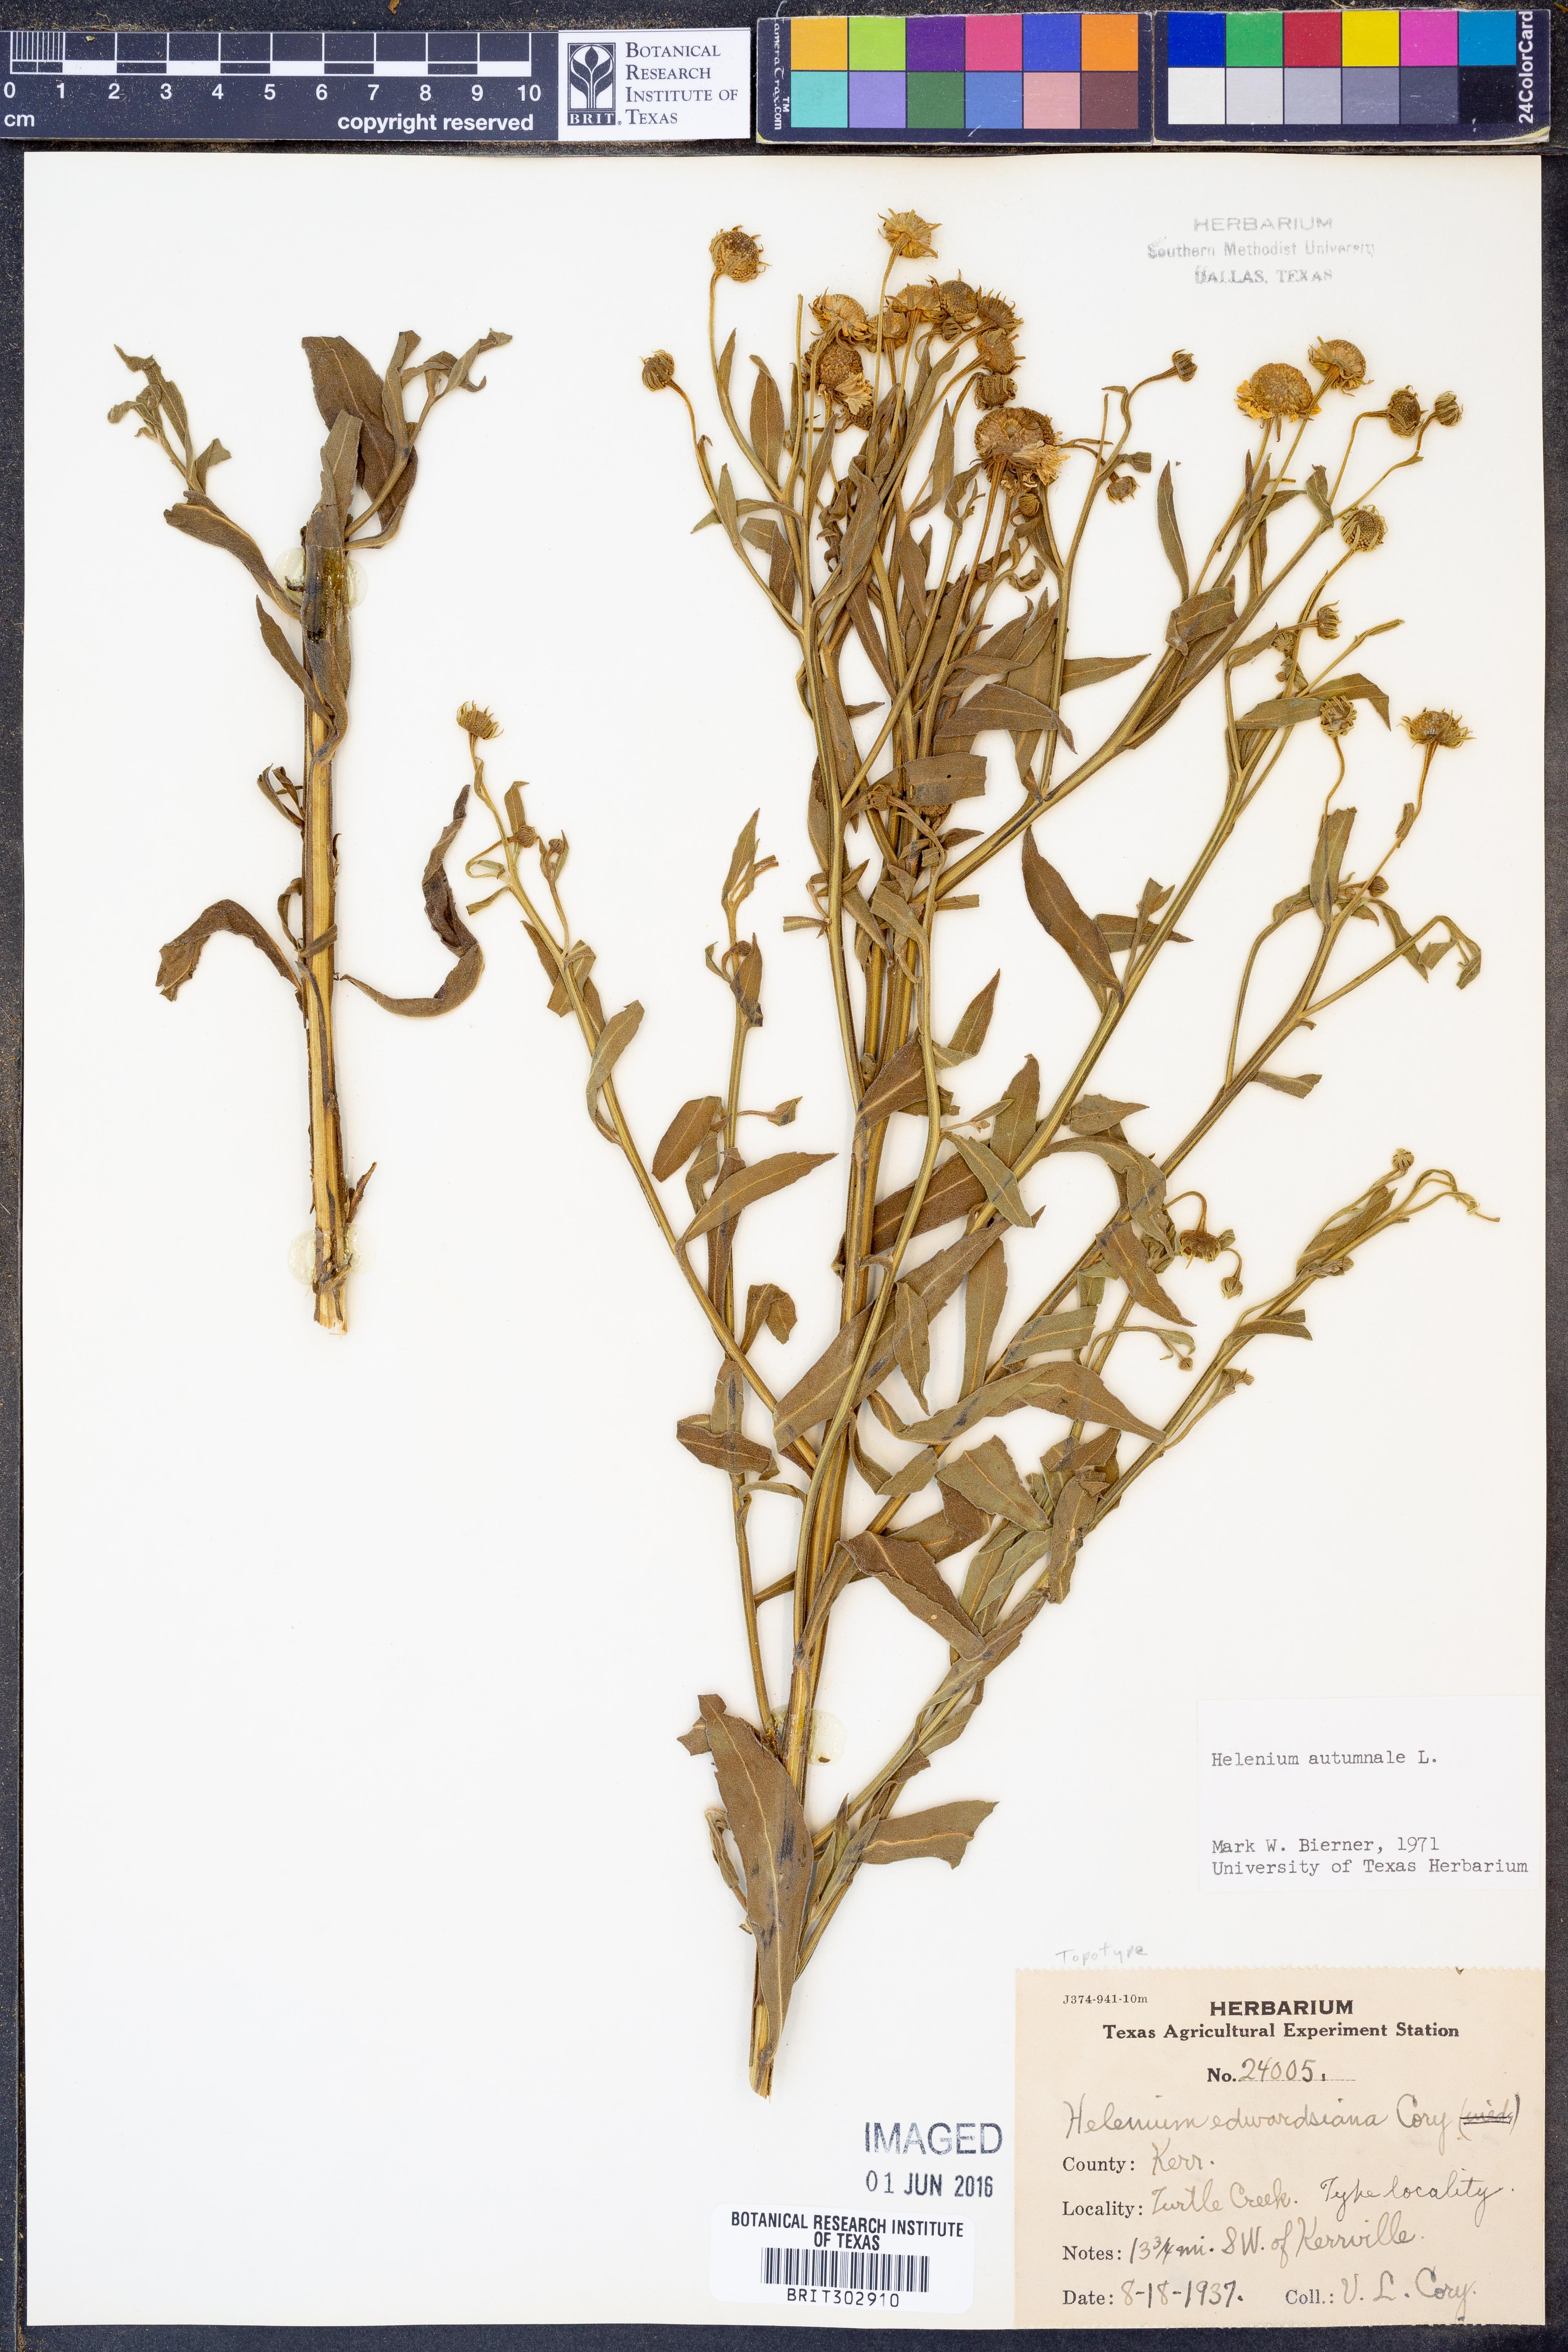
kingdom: Plantae
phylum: Tracheophyta
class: Magnoliopsida
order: Asterales
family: Asteraceae
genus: Helenium
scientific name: Helenium autumnale
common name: Sneezeweed
